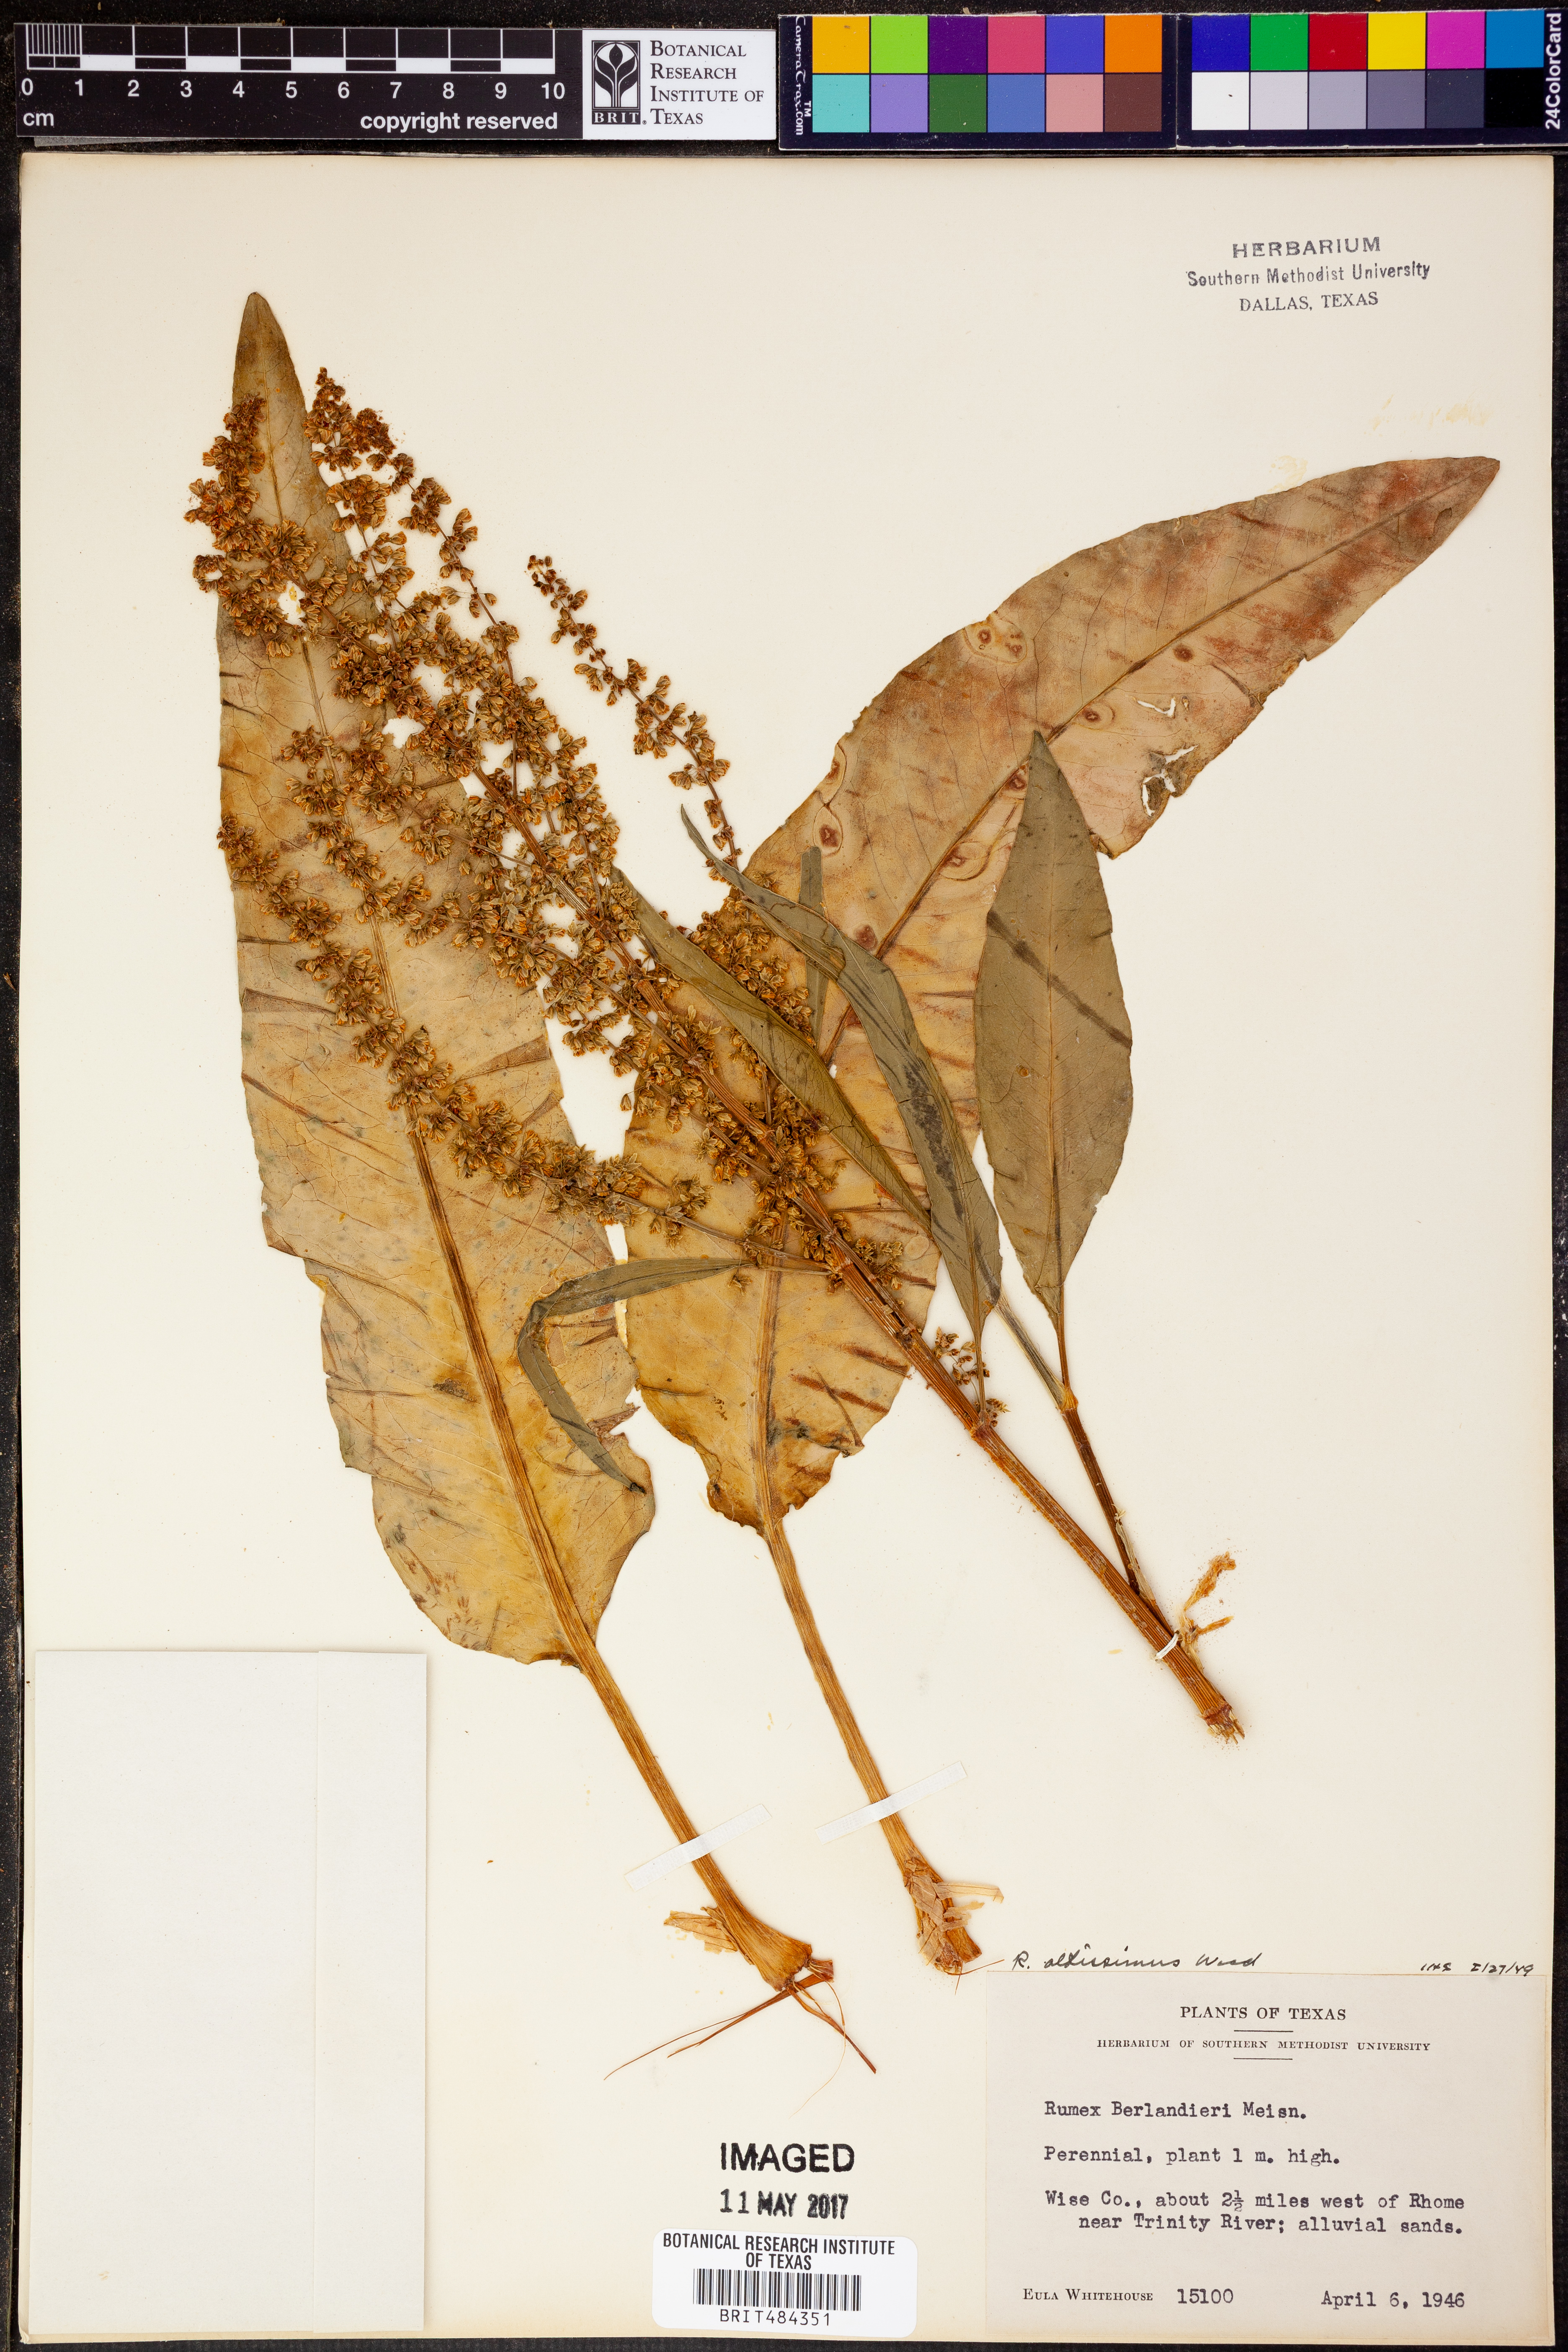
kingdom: Plantae
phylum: Tracheophyta
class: Magnoliopsida
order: Caryophyllales
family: Polygonaceae
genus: Rumex
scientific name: Rumex altissimus
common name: Smooth dock
